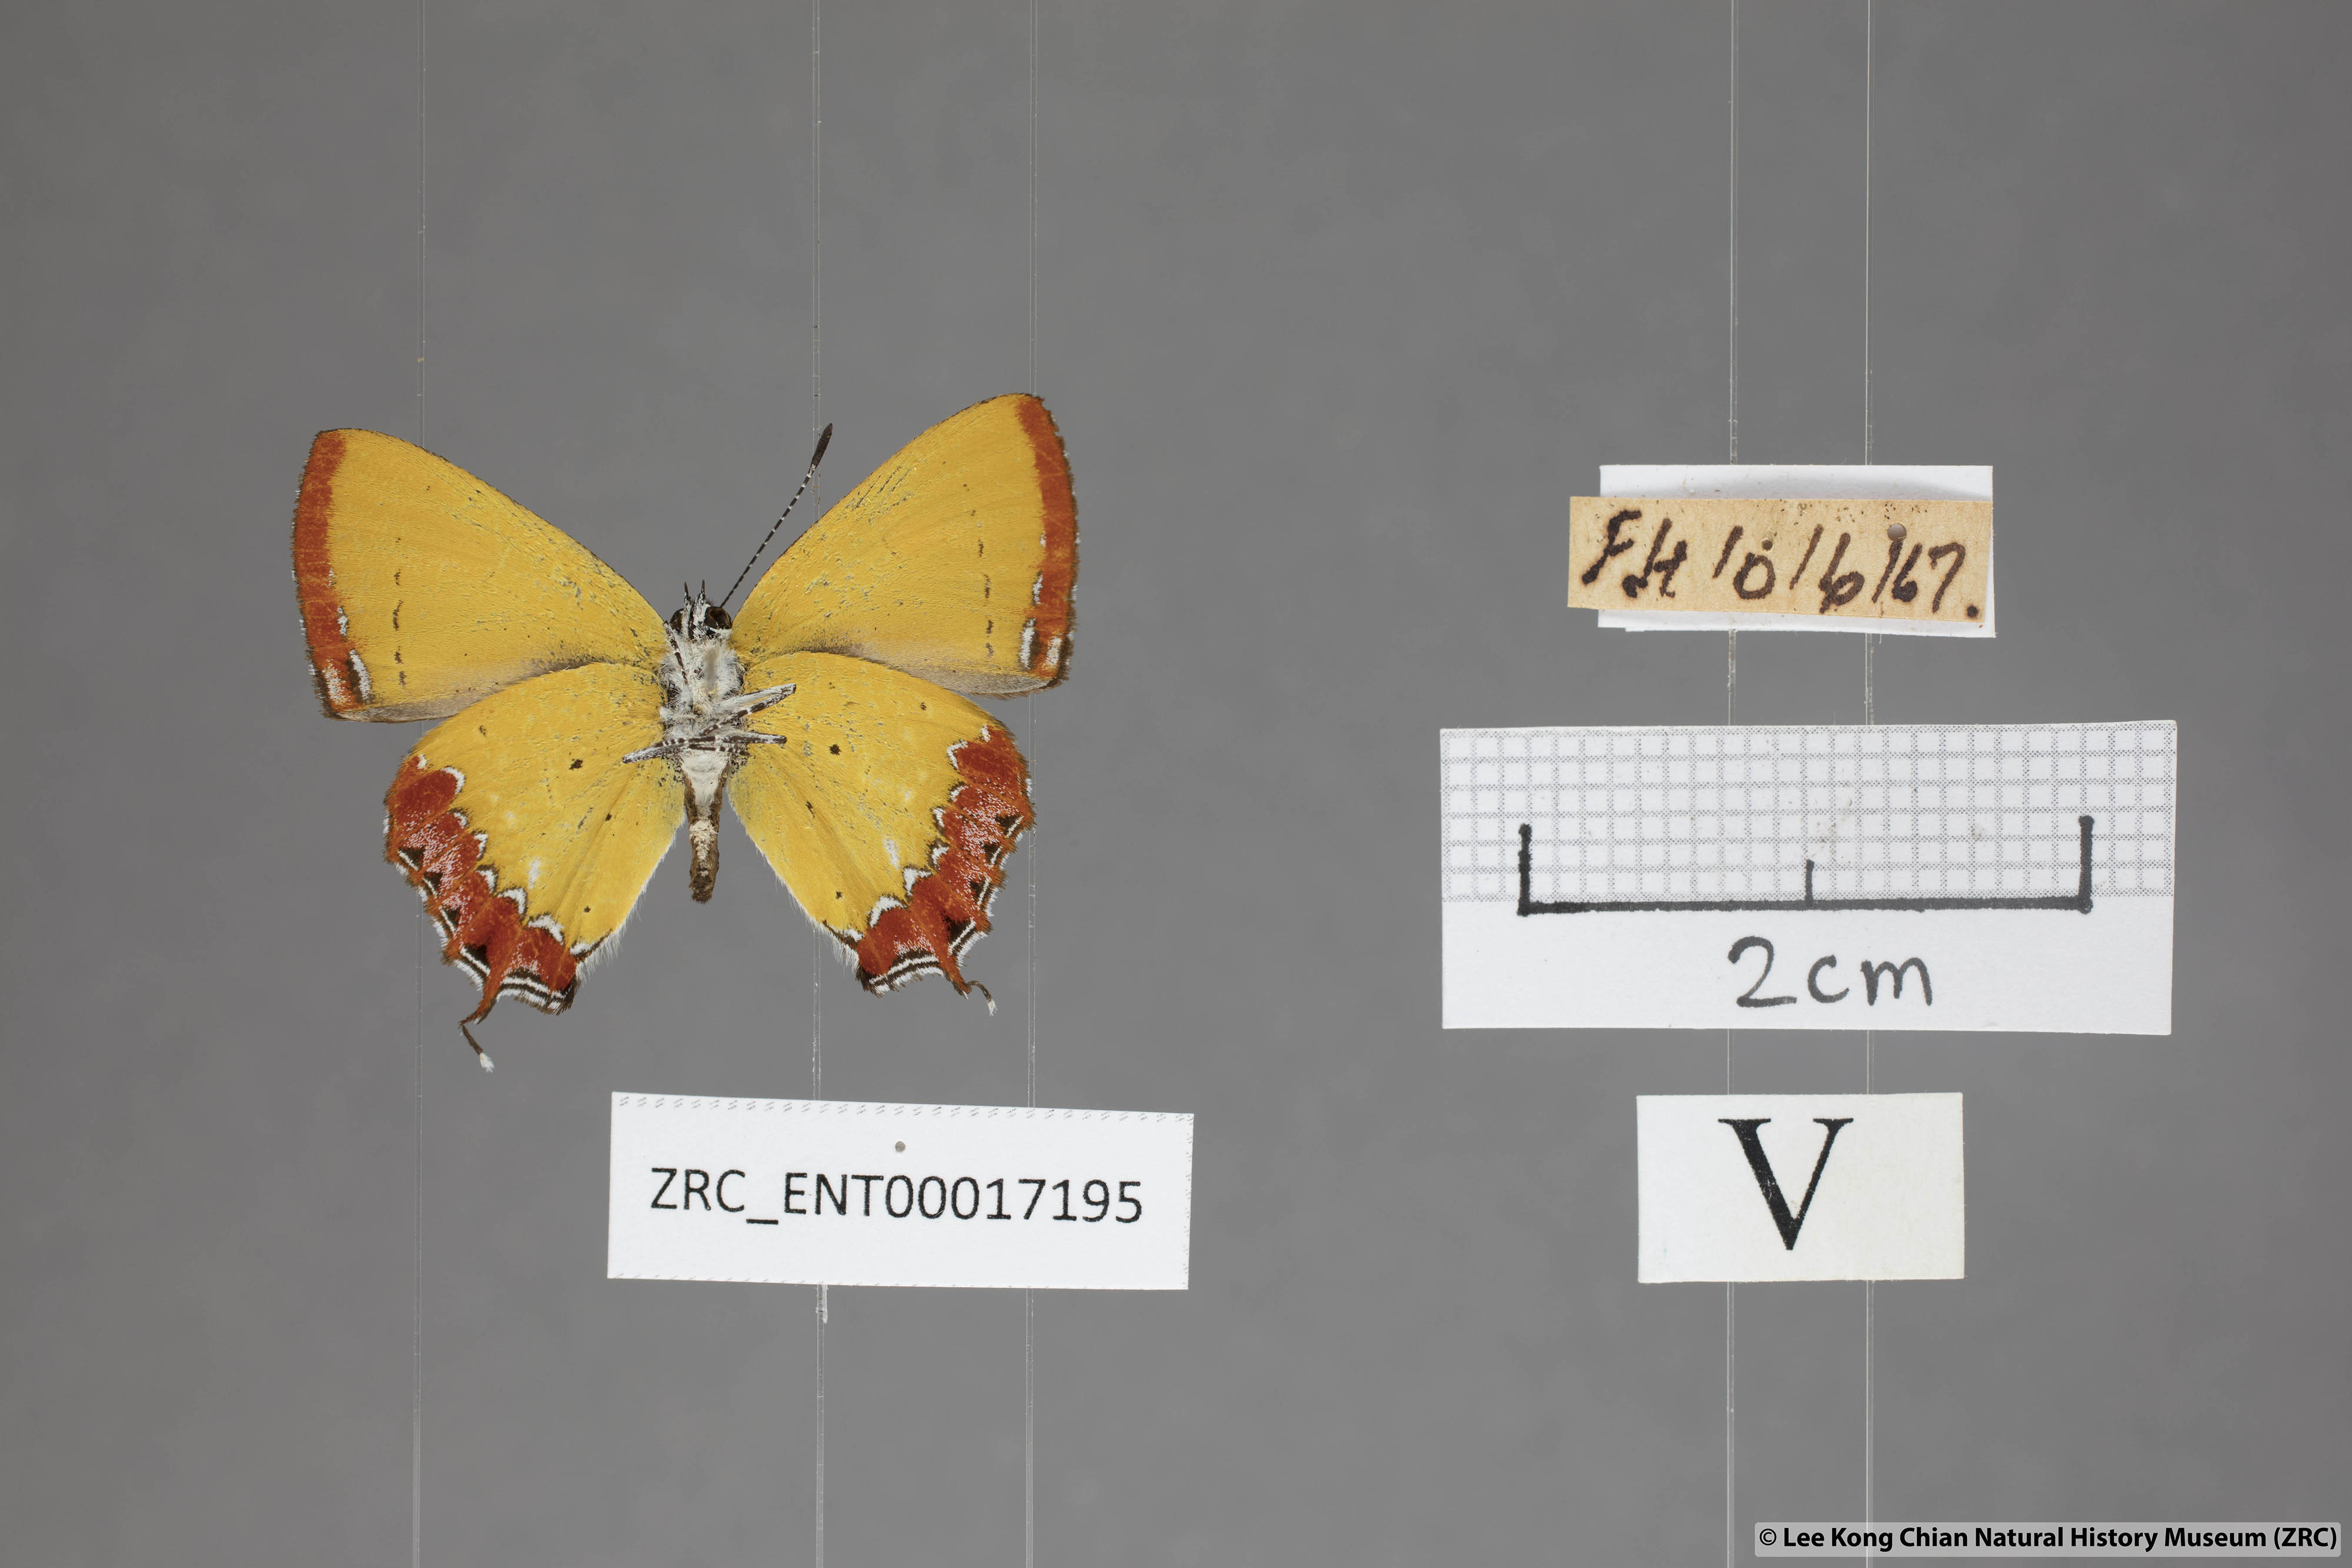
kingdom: Animalia
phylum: Arthropoda
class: Insecta
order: Lepidoptera
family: Lycaenidae
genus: Heliophorus
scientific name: Heliophorus epicles
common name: Purple sapphire
